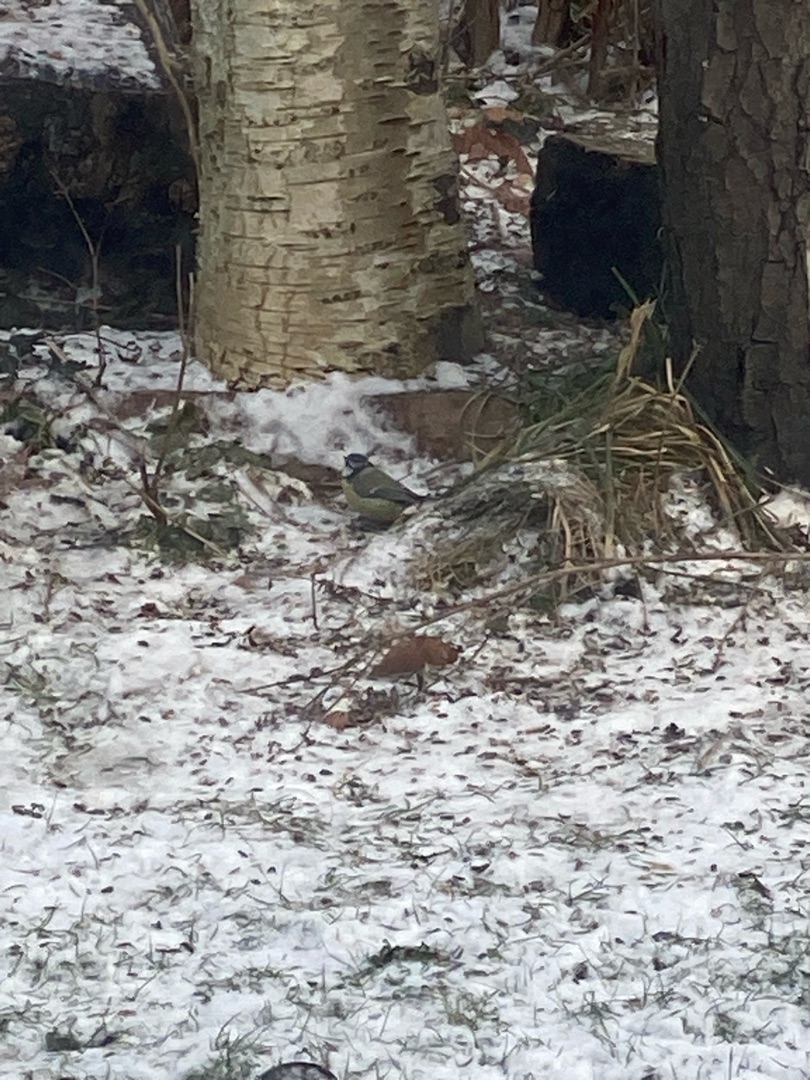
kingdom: Animalia
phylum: Chordata
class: Aves
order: Passeriformes
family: Paridae
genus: Cyanistes
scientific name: Cyanistes caeruleus
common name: Blåmejse
